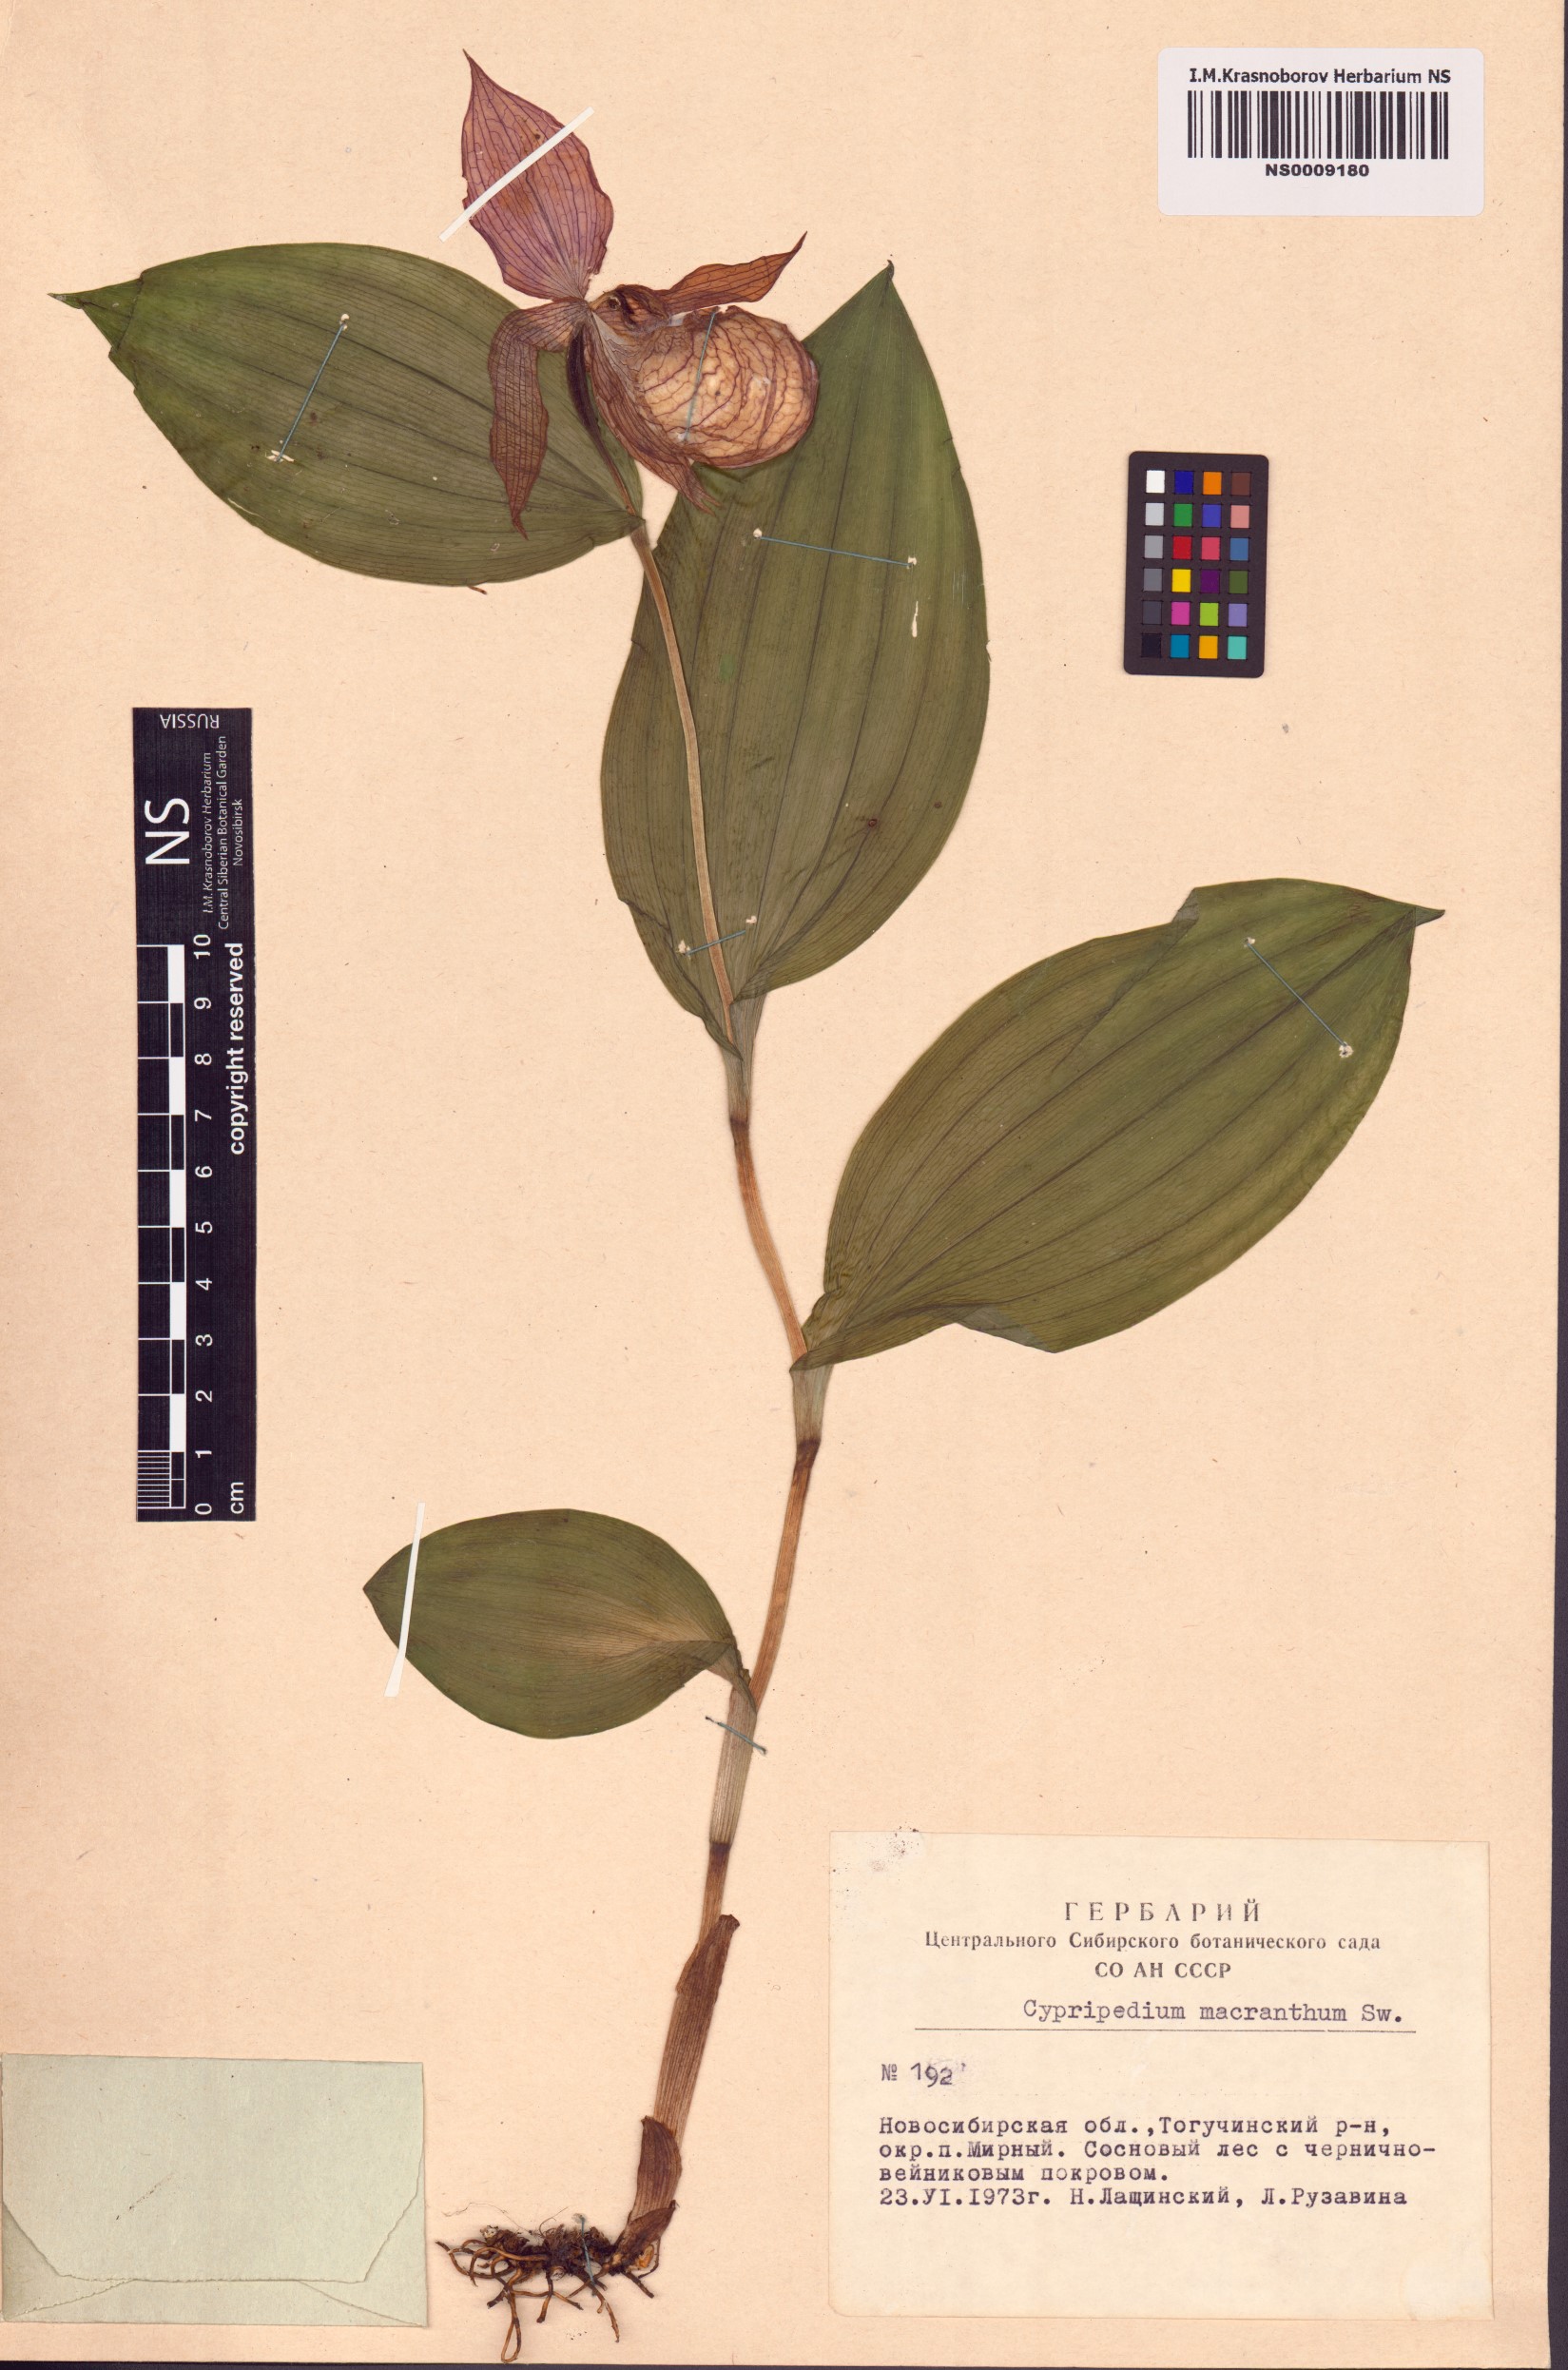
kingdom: Plantae
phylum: Tracheophyta
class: Liliopsida
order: Asparagales
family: Orchidaceae
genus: Cypripedium
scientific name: Cypripedium macranthos
